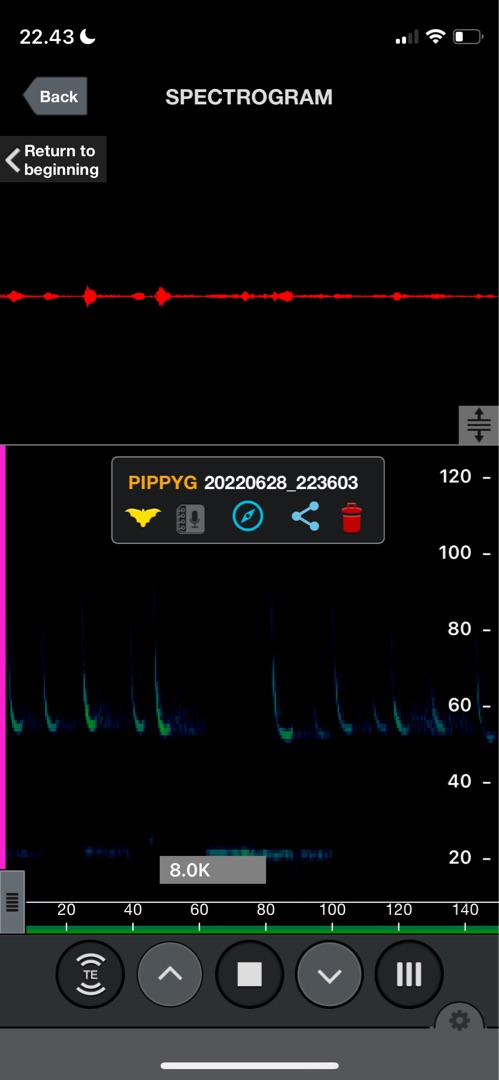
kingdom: Animalia
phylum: Chordata
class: Mammalia
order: Chiroptera
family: Vespertilionidae
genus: Pipistrellus
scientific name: Pipistrellus pygmaeus
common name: Dværgflagermus
